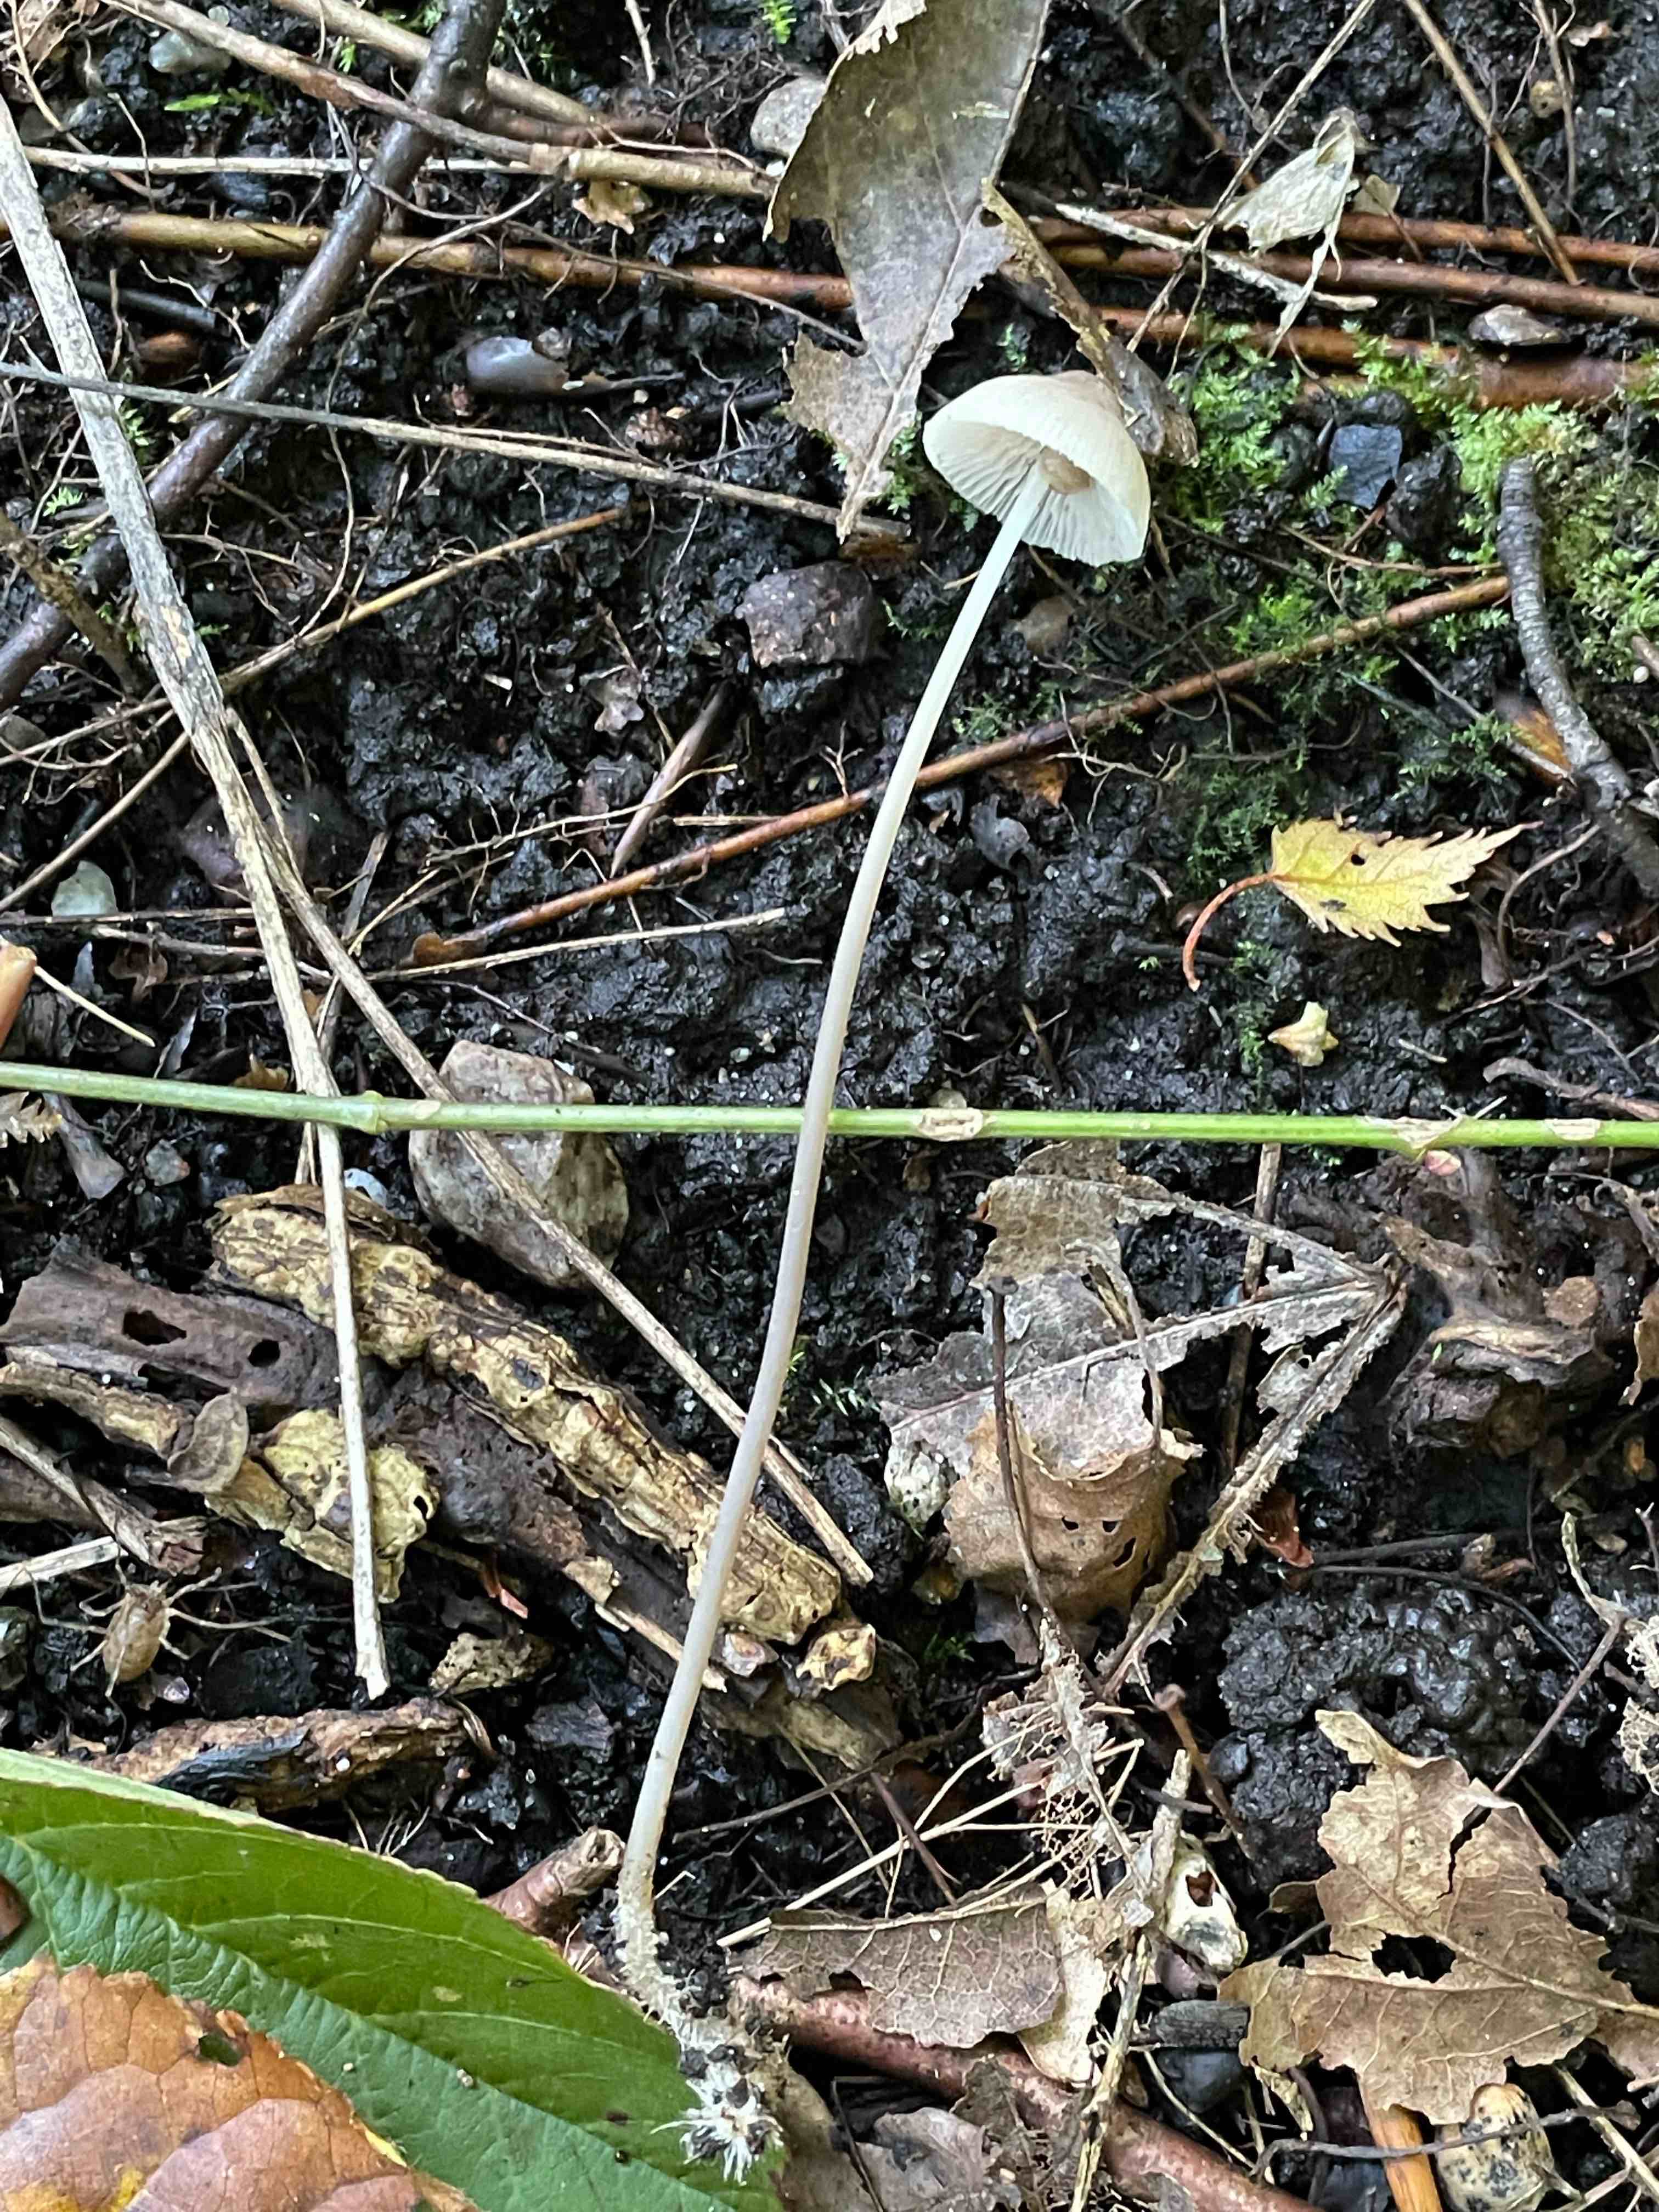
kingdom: Fungi
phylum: Basidiomycota
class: Agaricomycetes
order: Agaricales
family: Mycenaceae
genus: Mycena
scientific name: Mycena
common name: huesvamp
